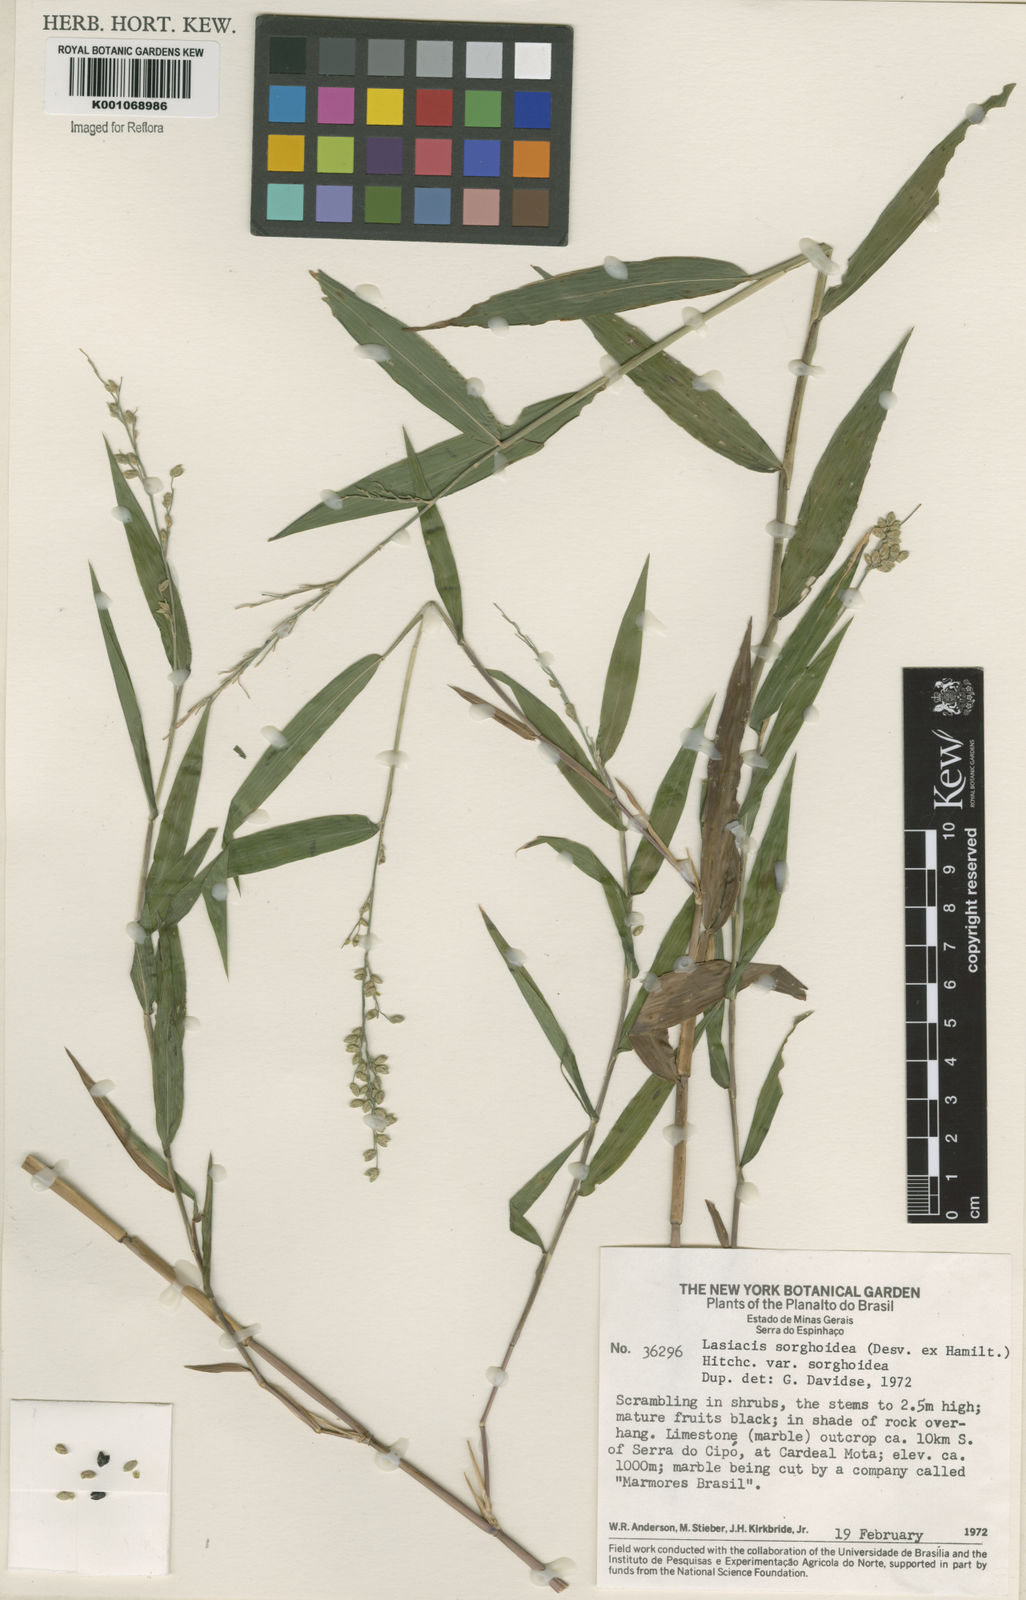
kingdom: Plantae
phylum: Tracheophyta
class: Liliopsida
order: Poales
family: Poaceae
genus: Lasiacis
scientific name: Lasiacis maculata
